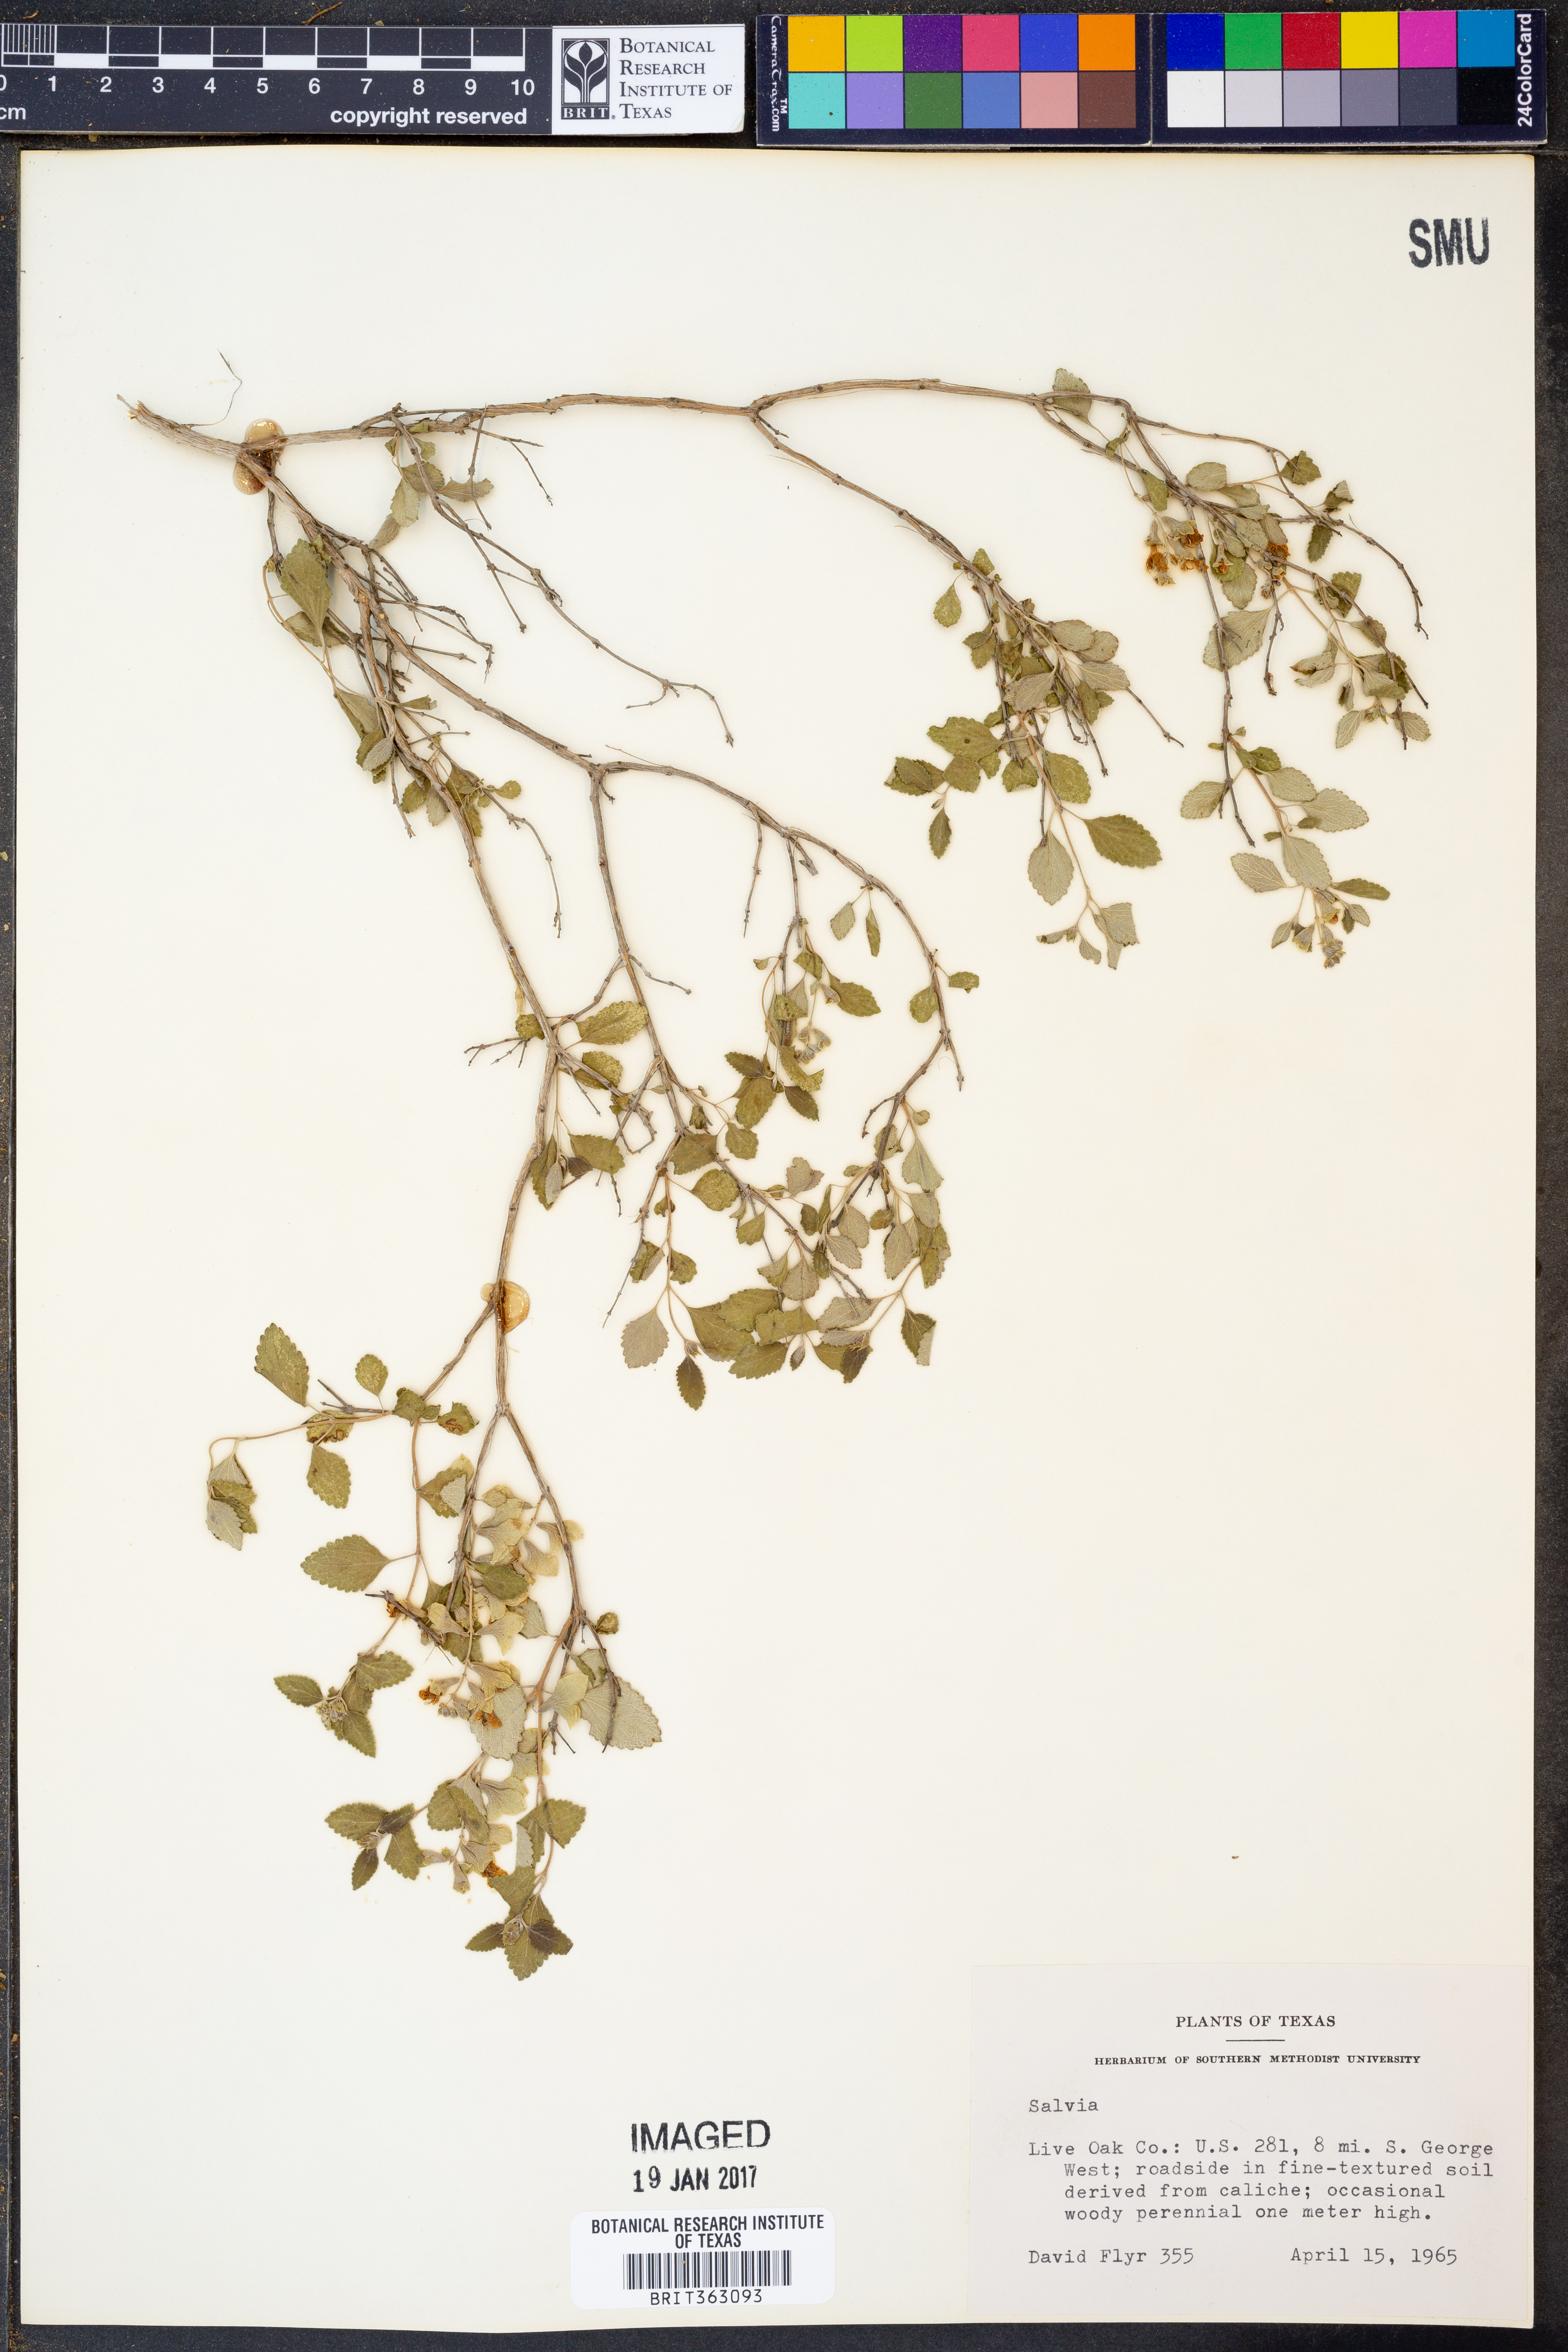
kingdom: Plantae
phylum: Tracheophyta
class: Magnoliopsida
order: Lamiales
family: Lamiaceae
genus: Salvia
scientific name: Salvia
